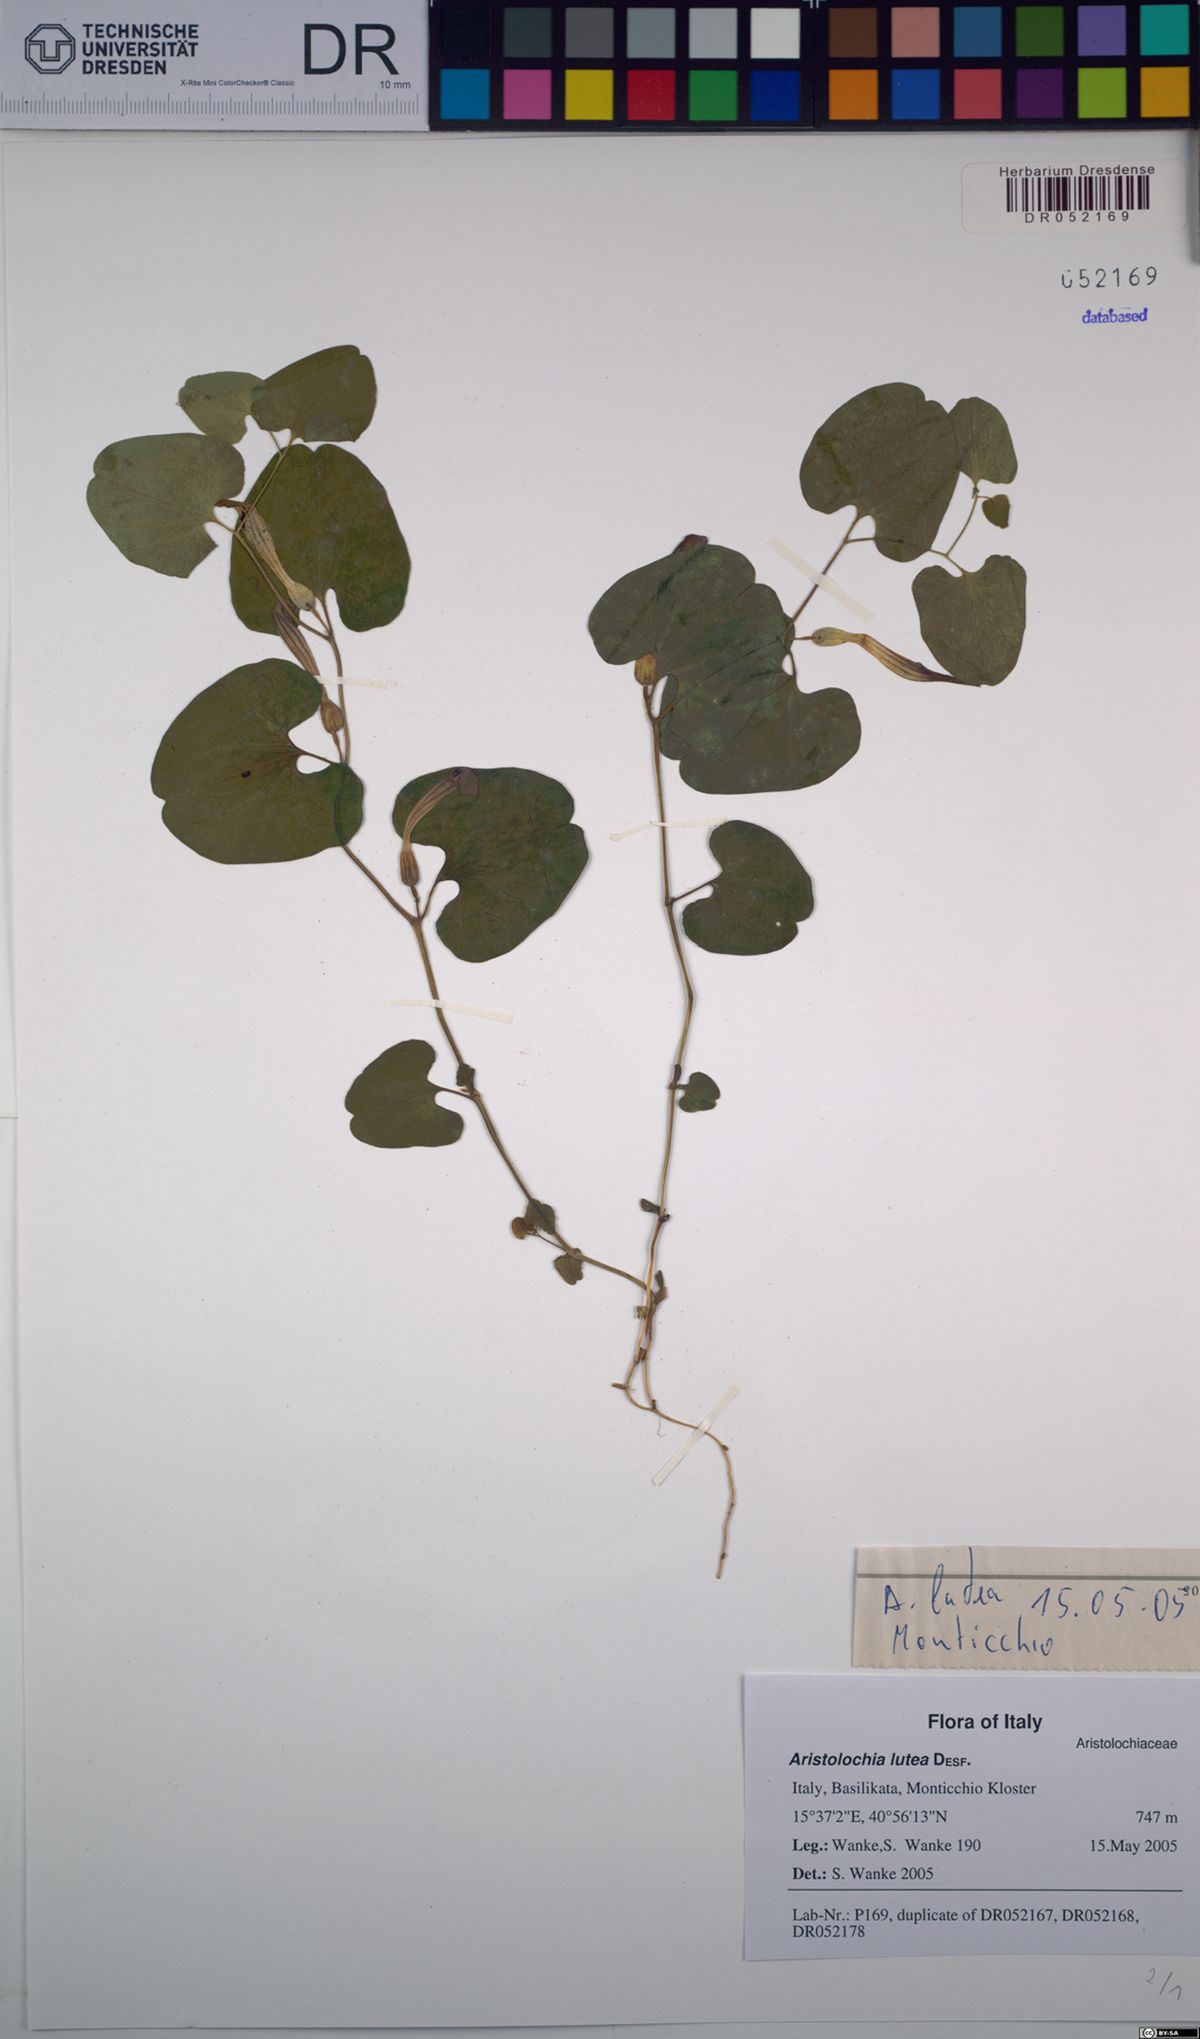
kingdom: Plantae
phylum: Tracheophyta
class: Magnoliopsida
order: Piperales
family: Aristolochiaceae
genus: Aristolochia
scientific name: Aristolochia lutea
